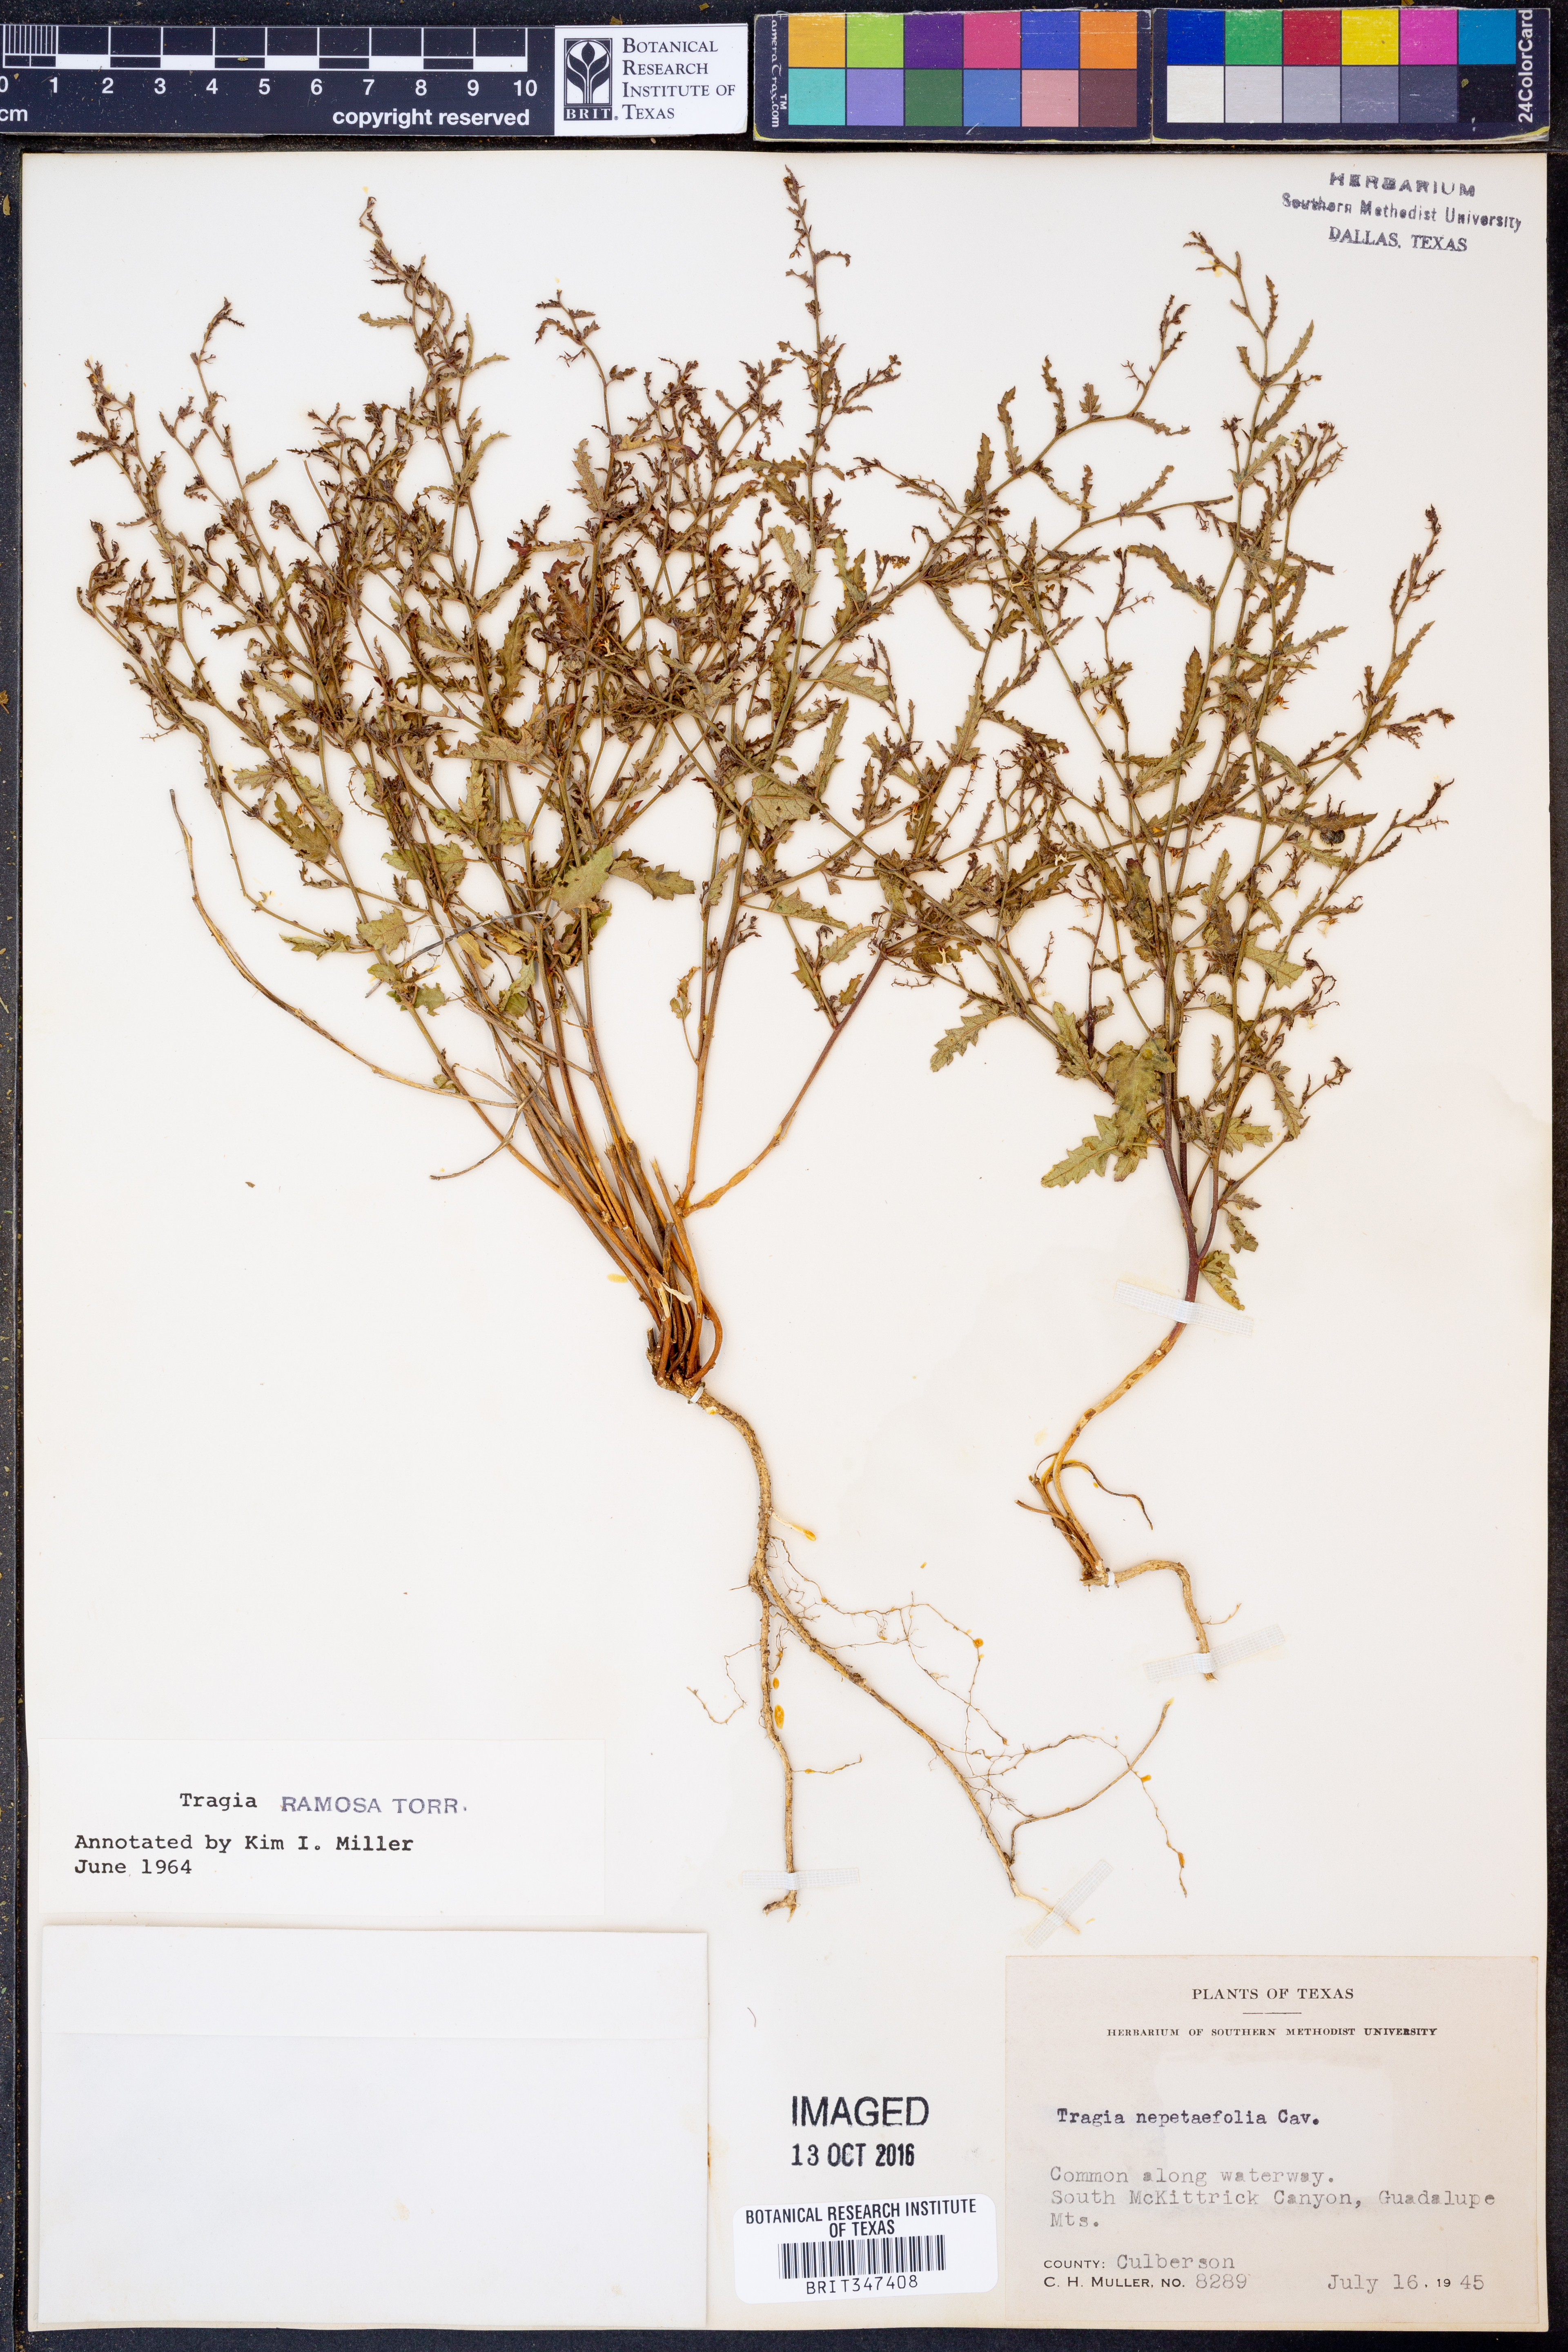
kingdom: Plantae
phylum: Tracheophyta
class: Magnoliopsida
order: Malpighiales
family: Euphorbiaceae
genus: Tragia
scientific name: Tragia ramosa
